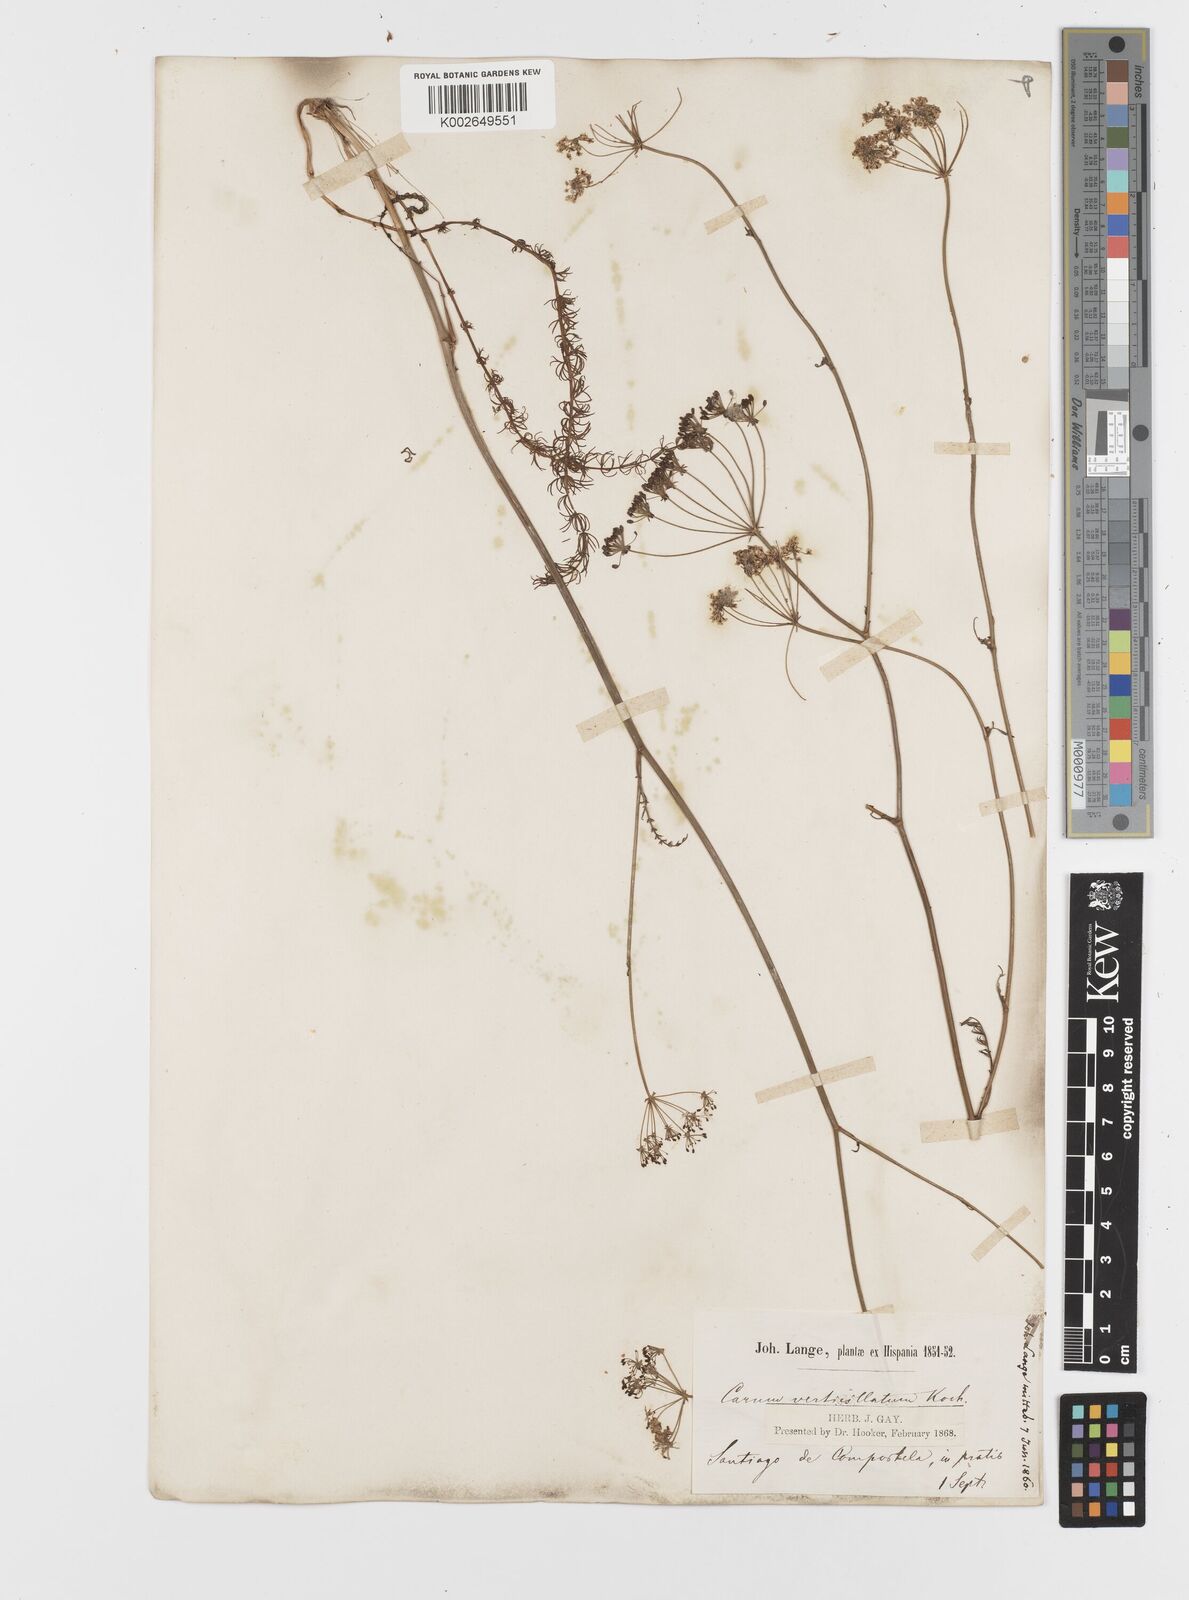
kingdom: Plantae
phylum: Tracheophyta
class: Magnoliopsida
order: Apiales
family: Apiaceae
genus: Trocdaris
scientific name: Trocdaris verticillatum
